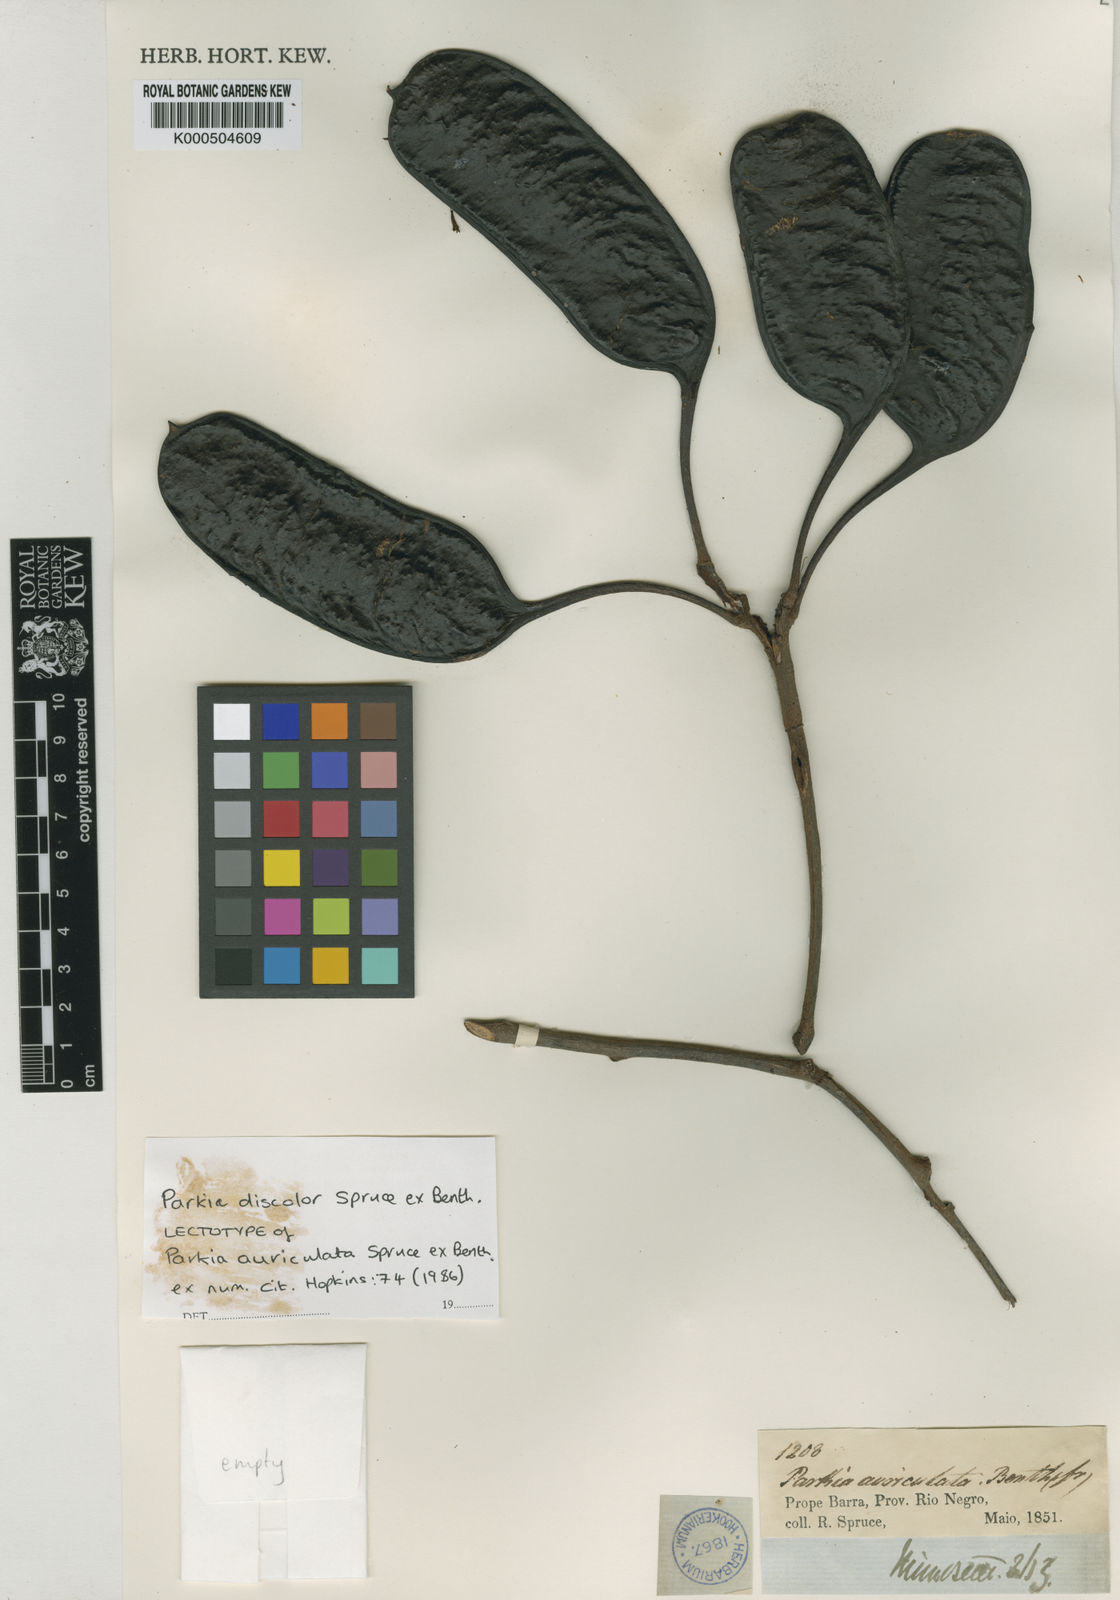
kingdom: Plantae
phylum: Tracheophyta
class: Magnoliopsida
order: Fabales
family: Fabaceae
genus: Parkia
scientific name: Parkia discolor
